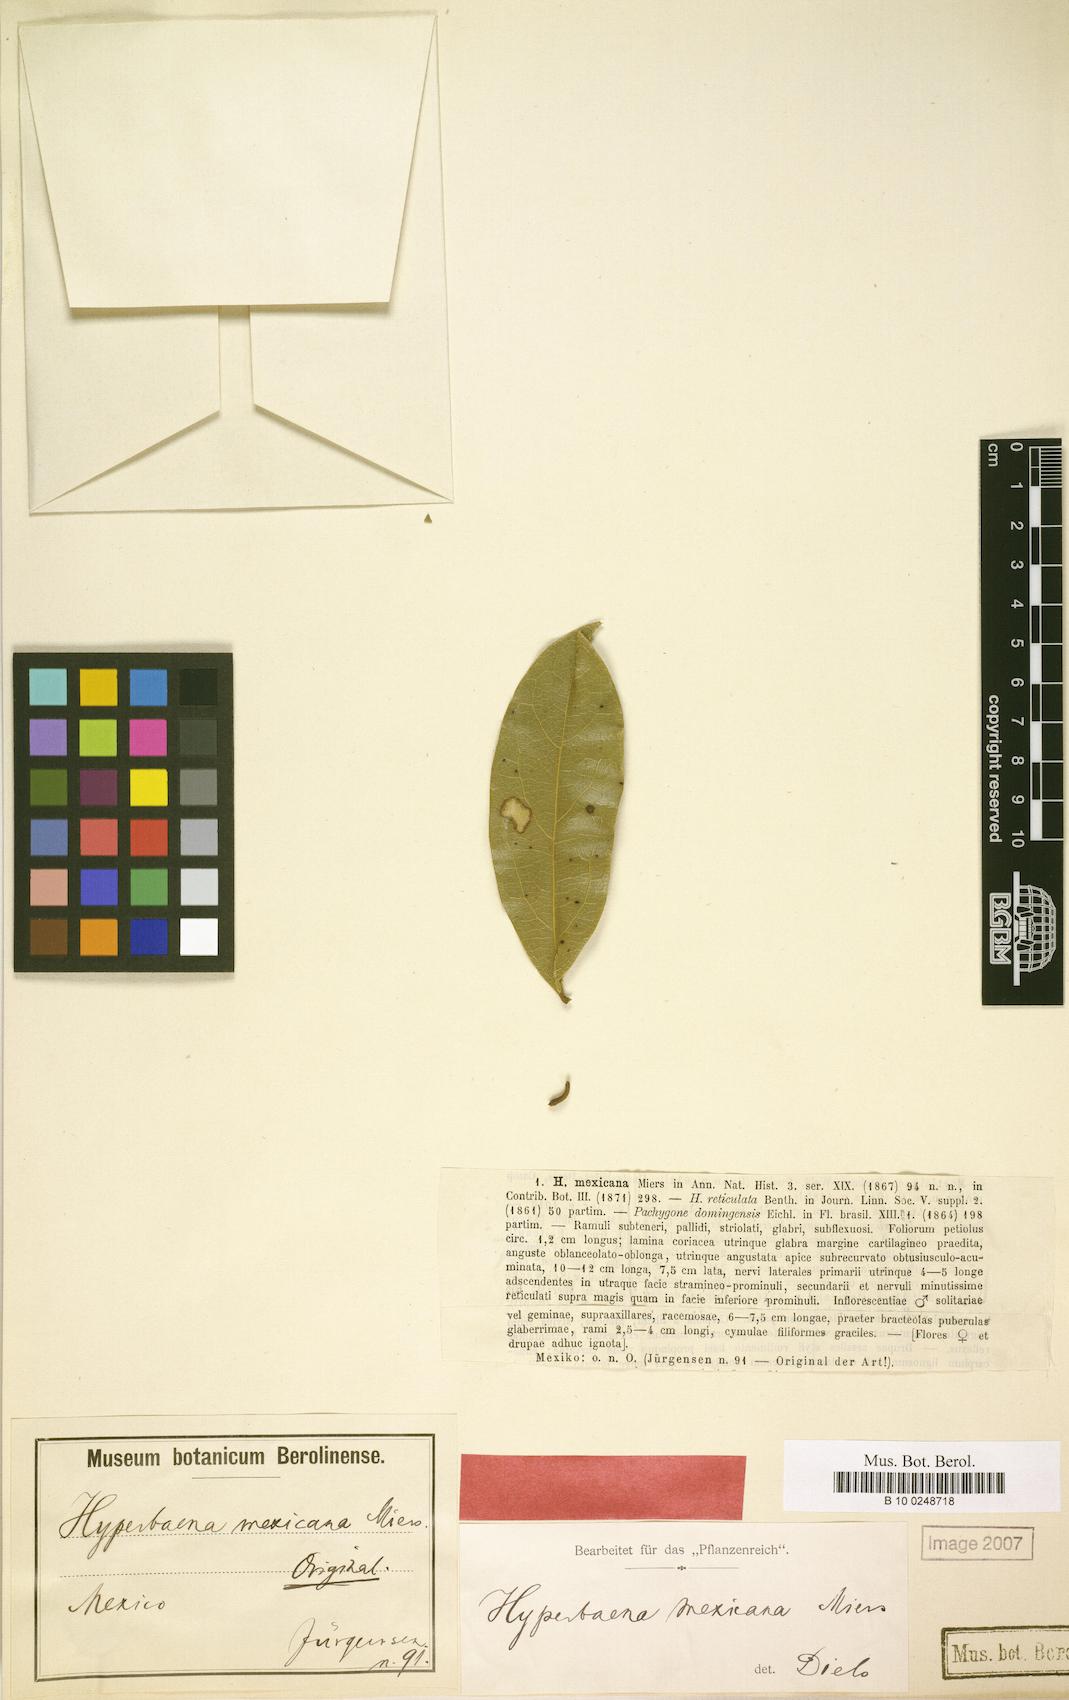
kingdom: Plantae
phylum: Tracheophyta
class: Magnoliopsida
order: Ranunculales
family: Menispermaceae
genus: Hyperbaena
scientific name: Hyperbaena mexicana
